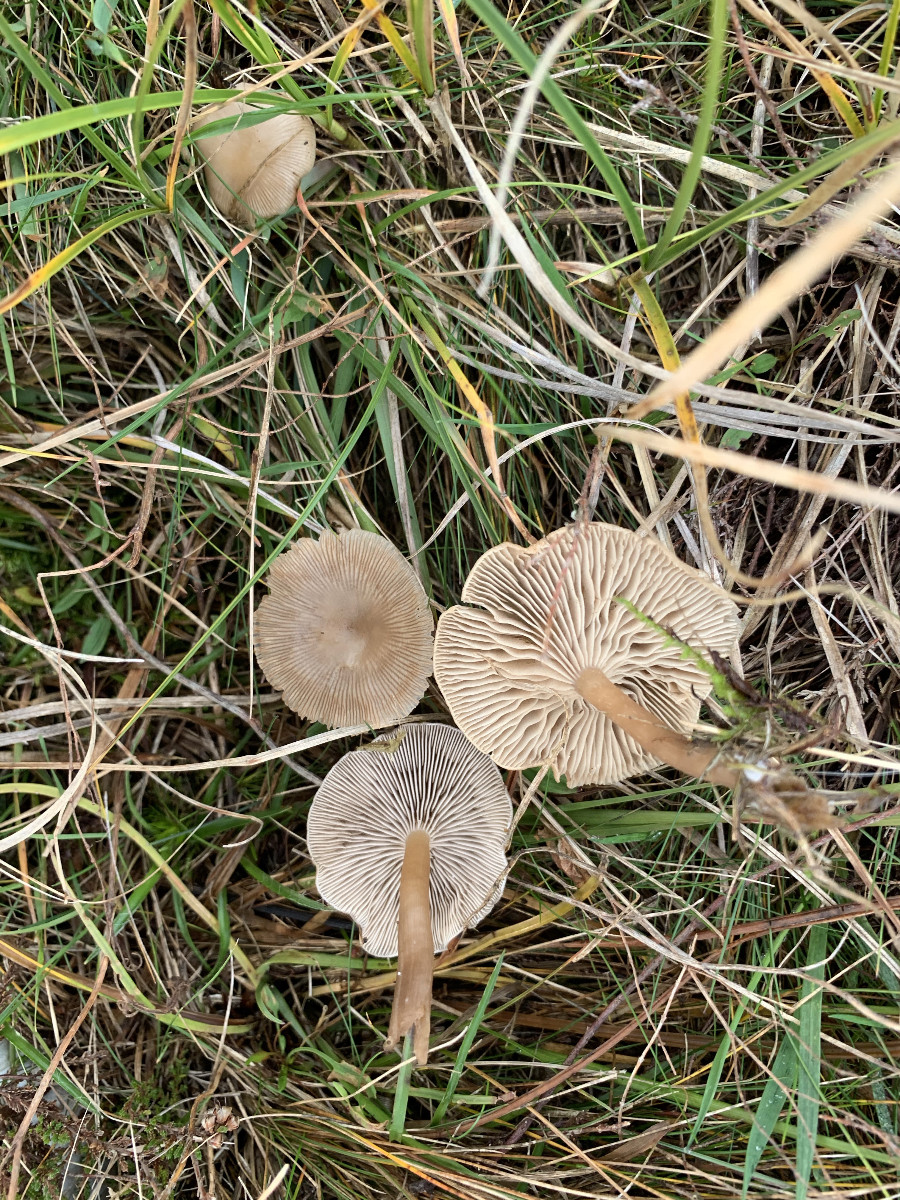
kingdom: Fungi
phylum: Basidiomycota
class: Agaricomycetes
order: Agaricales
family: Tricholomataceae
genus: Clitocybe
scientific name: Clitocybe
